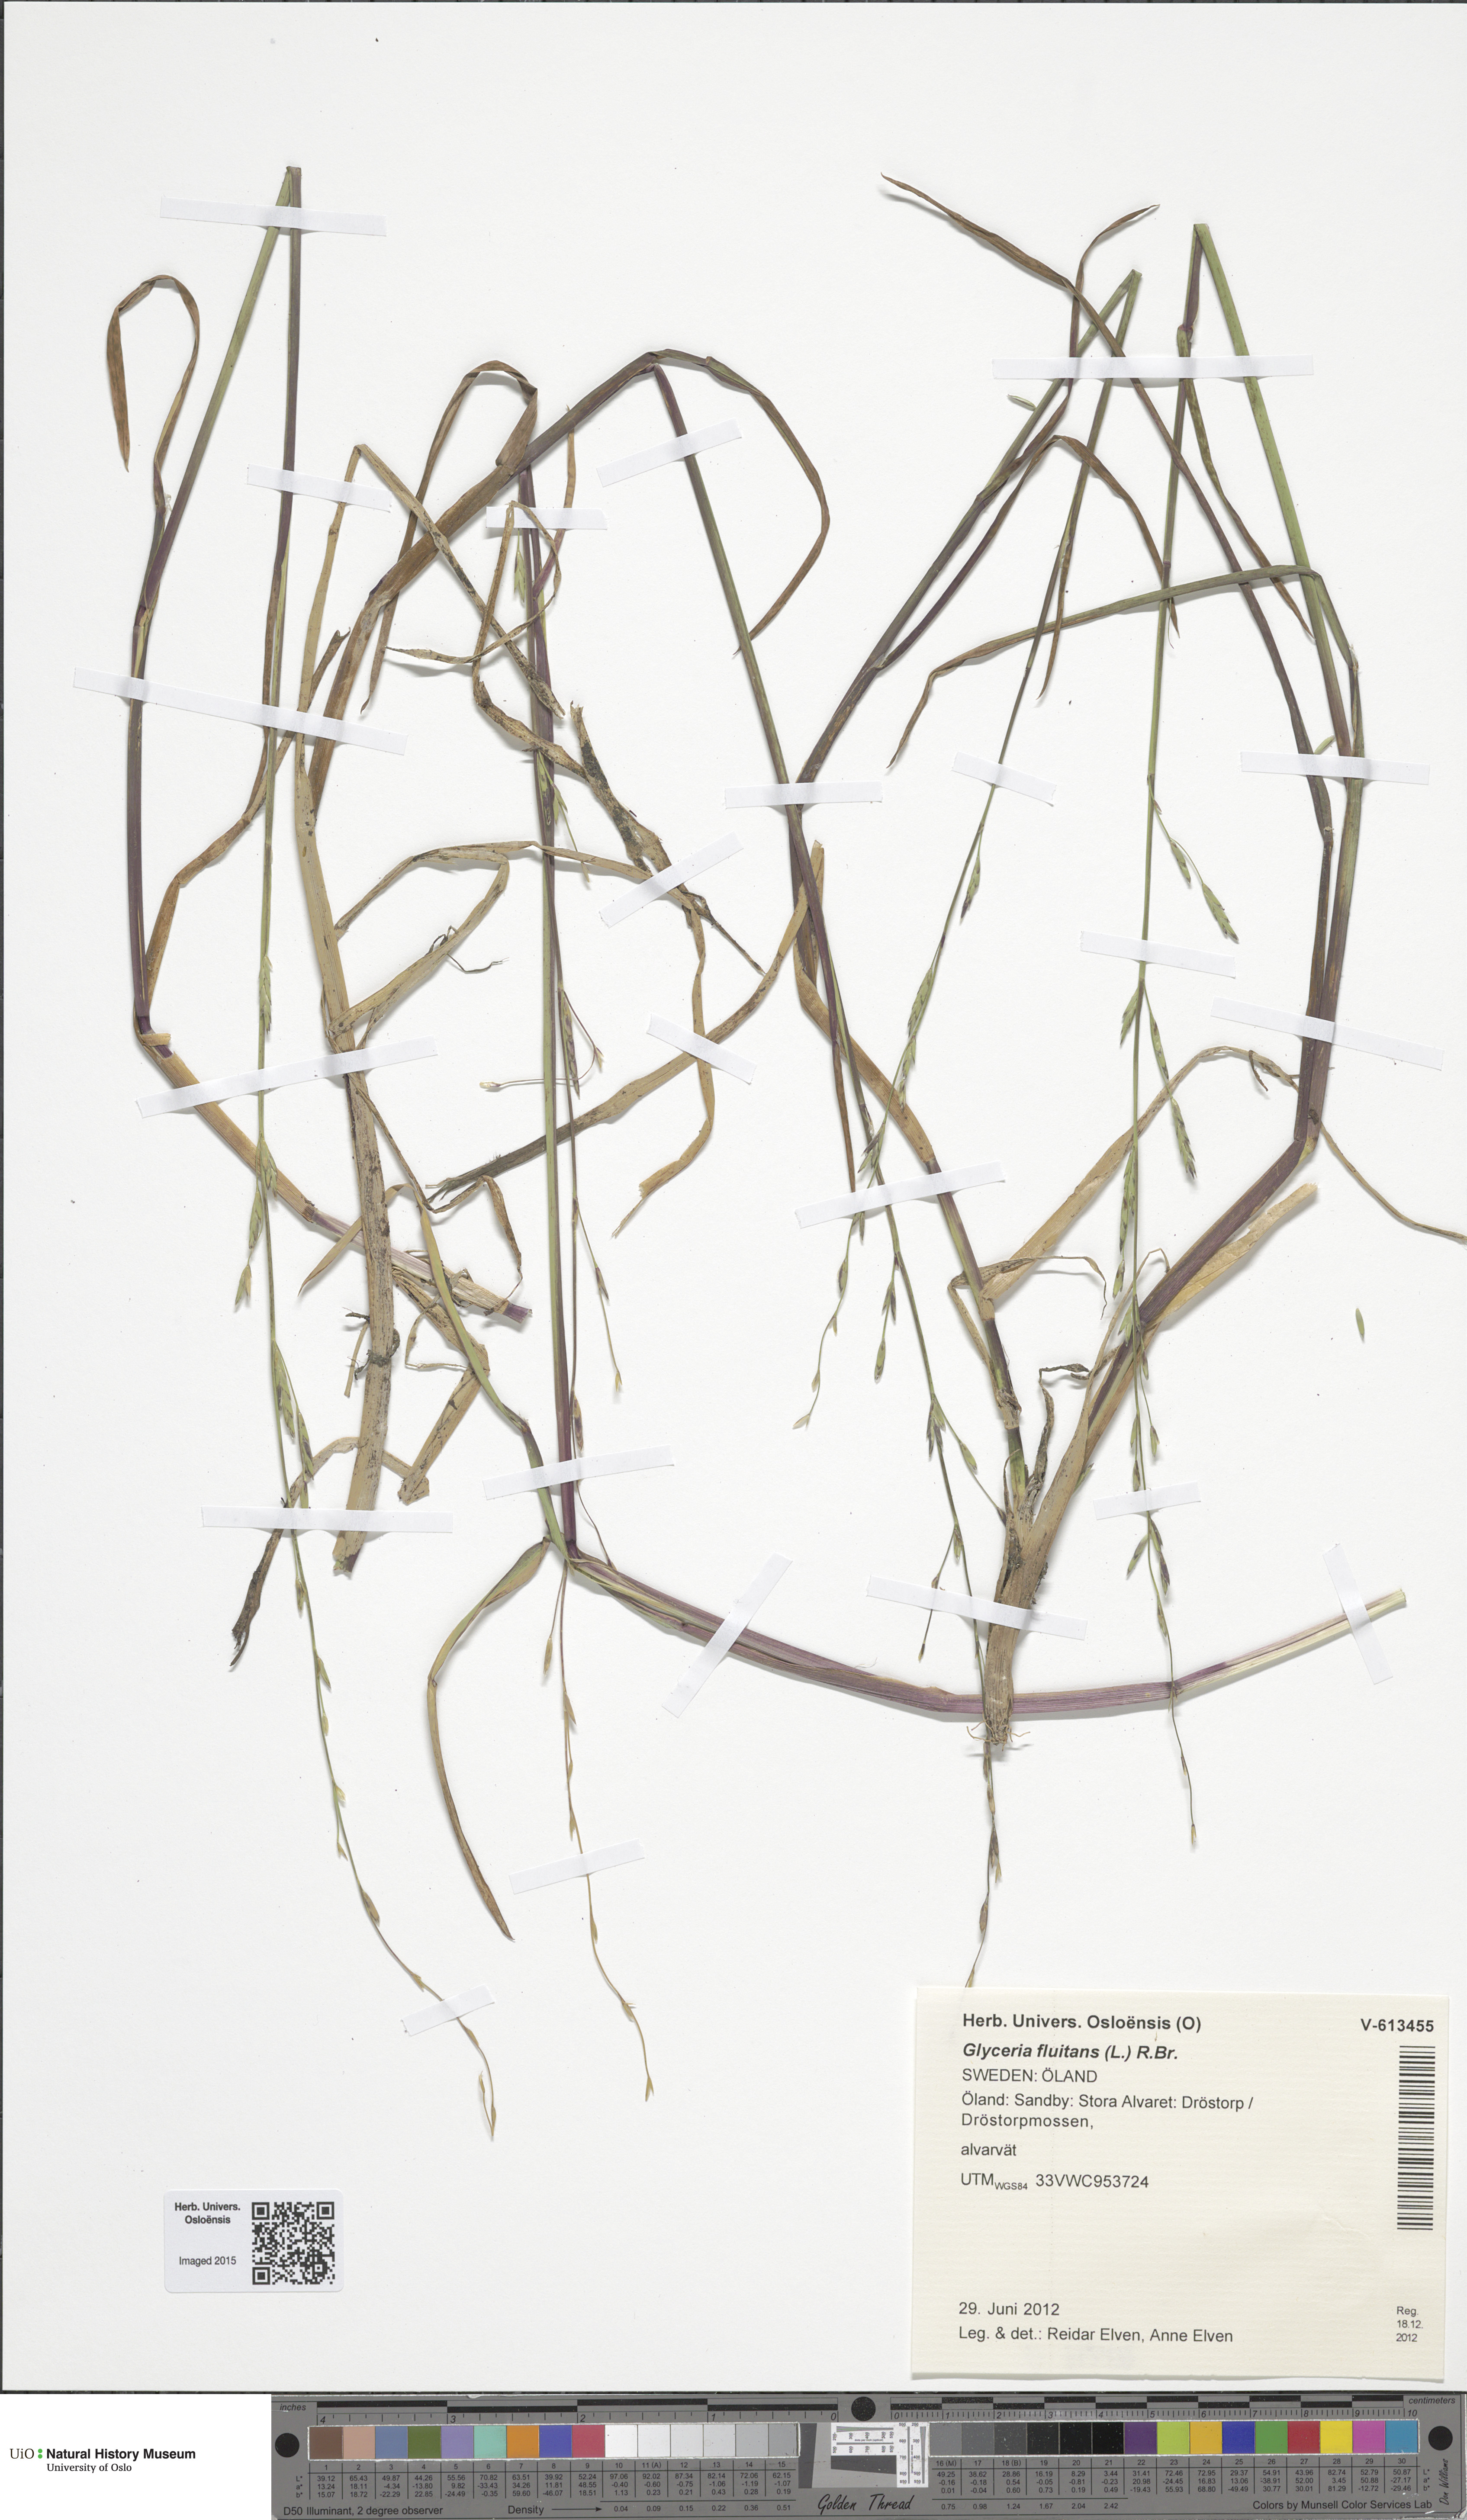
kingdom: Plantae
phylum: Tracheophyta
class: Liliopsida
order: Poales
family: Poaceae
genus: Glyceria
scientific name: Glyceria fluitans
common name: Floating sweet-grass
